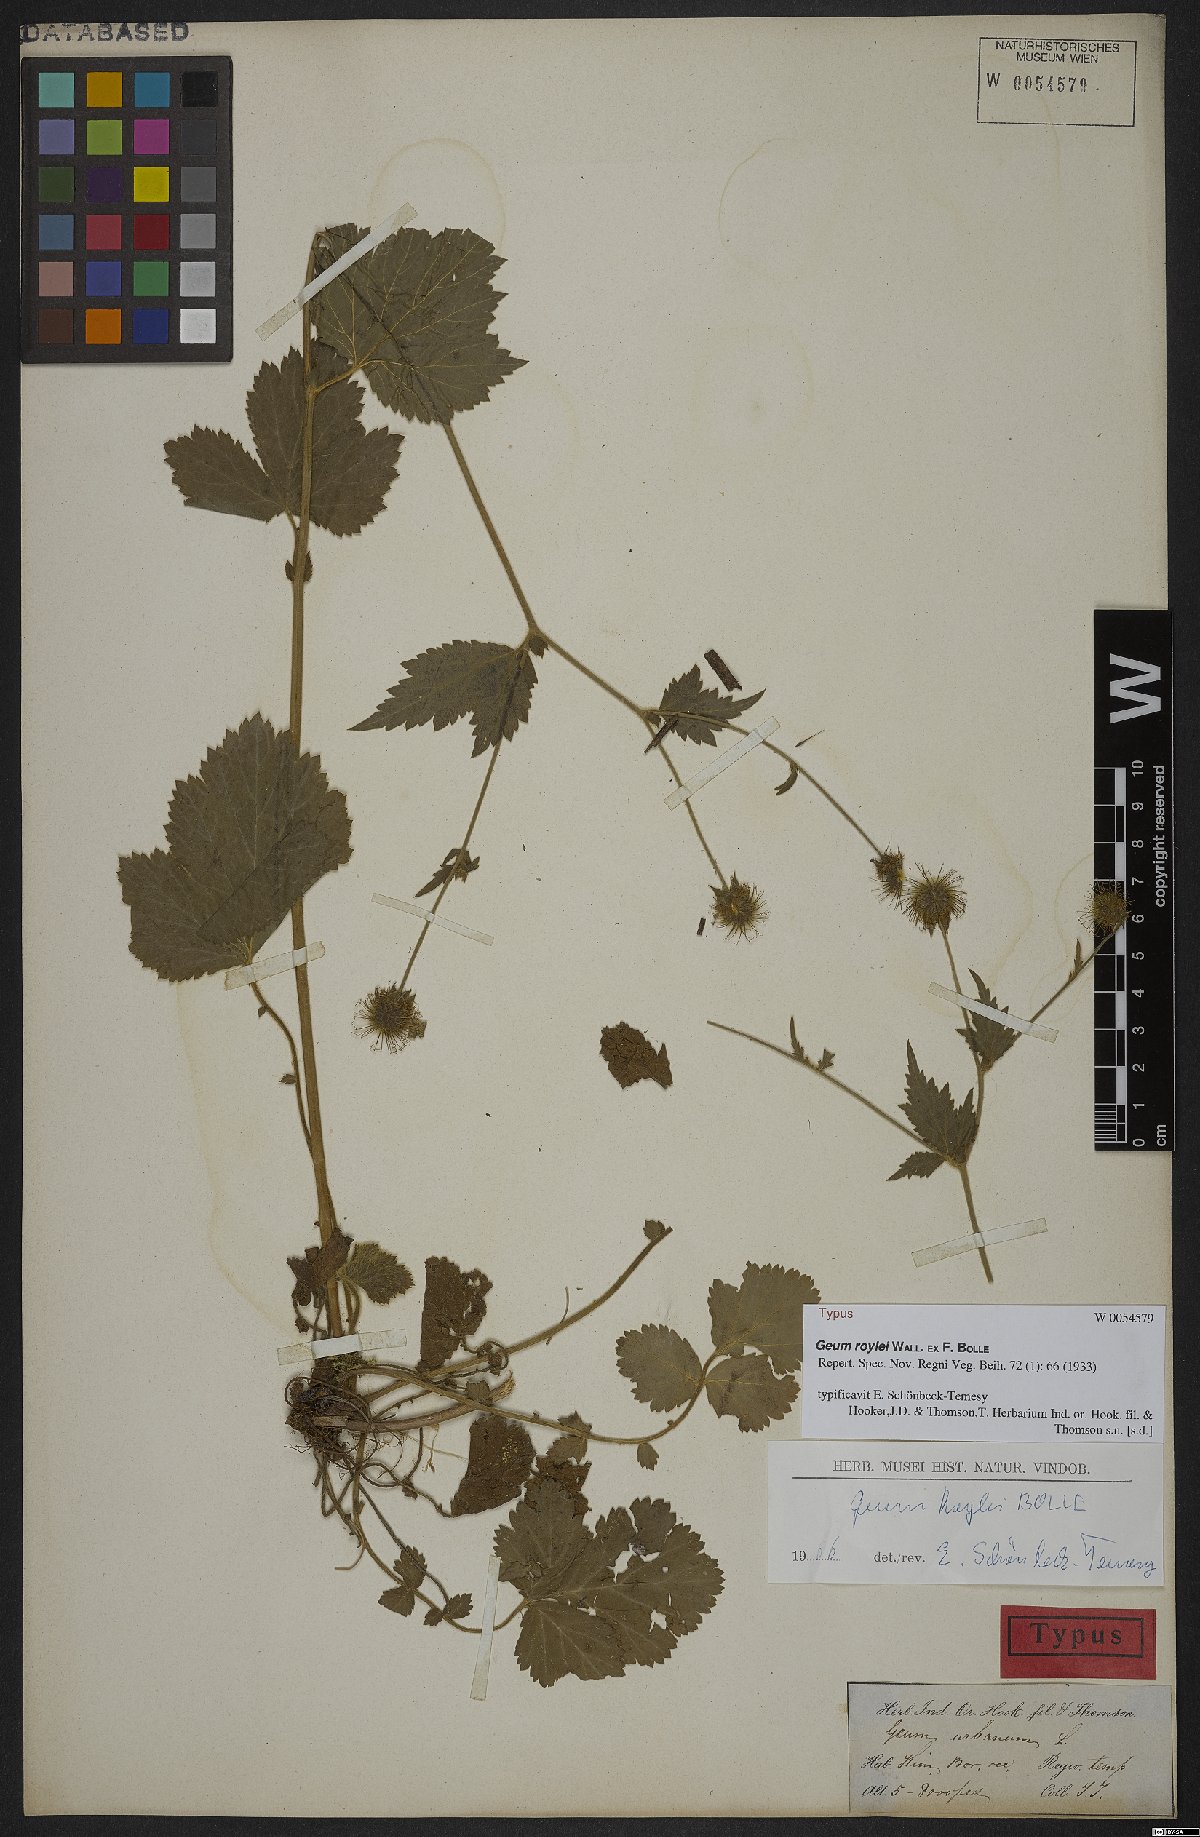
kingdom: Plantae
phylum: Tracheophyta
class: Magnoliopsida
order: Rosales
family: Rosaceae
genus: Geum
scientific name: Geum urbanum
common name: Wood avens
